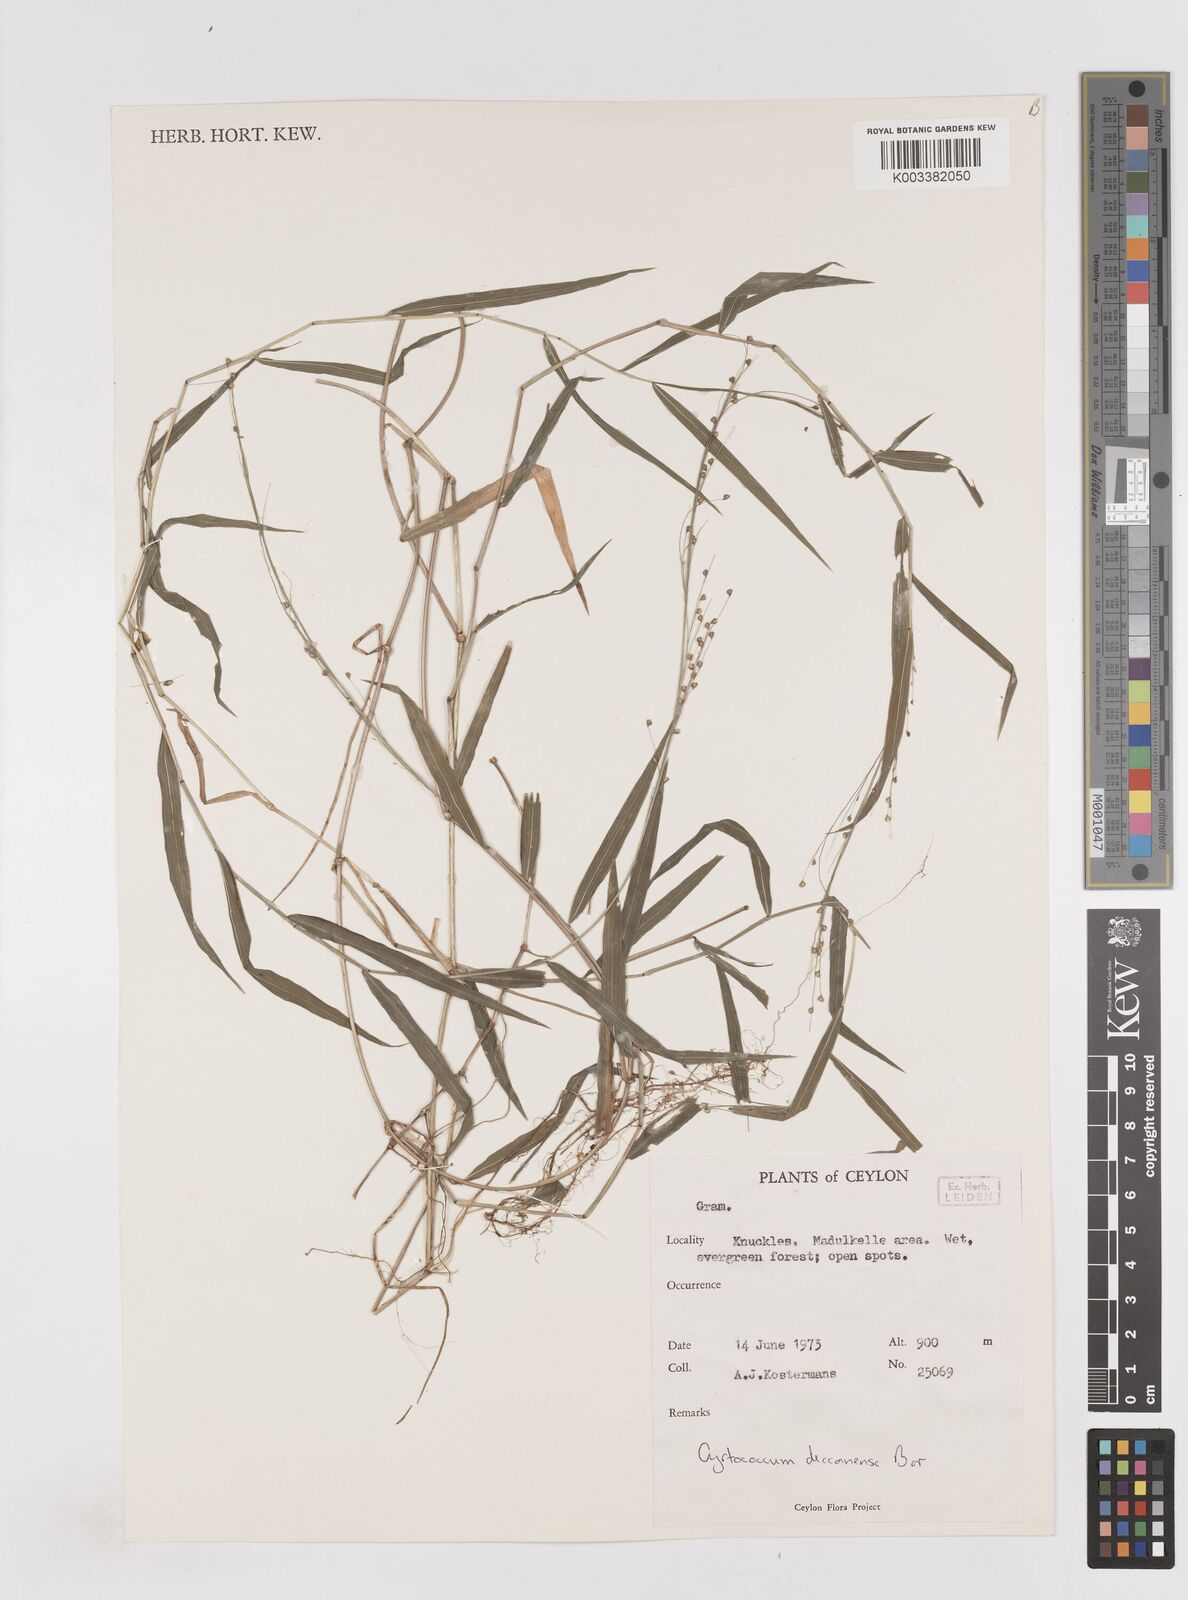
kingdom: Plantae
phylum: Tracheophyta
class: Liliopsida
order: Poales
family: Poaceae
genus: Cyrtococcum
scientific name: Cyrtococcum deccanense
